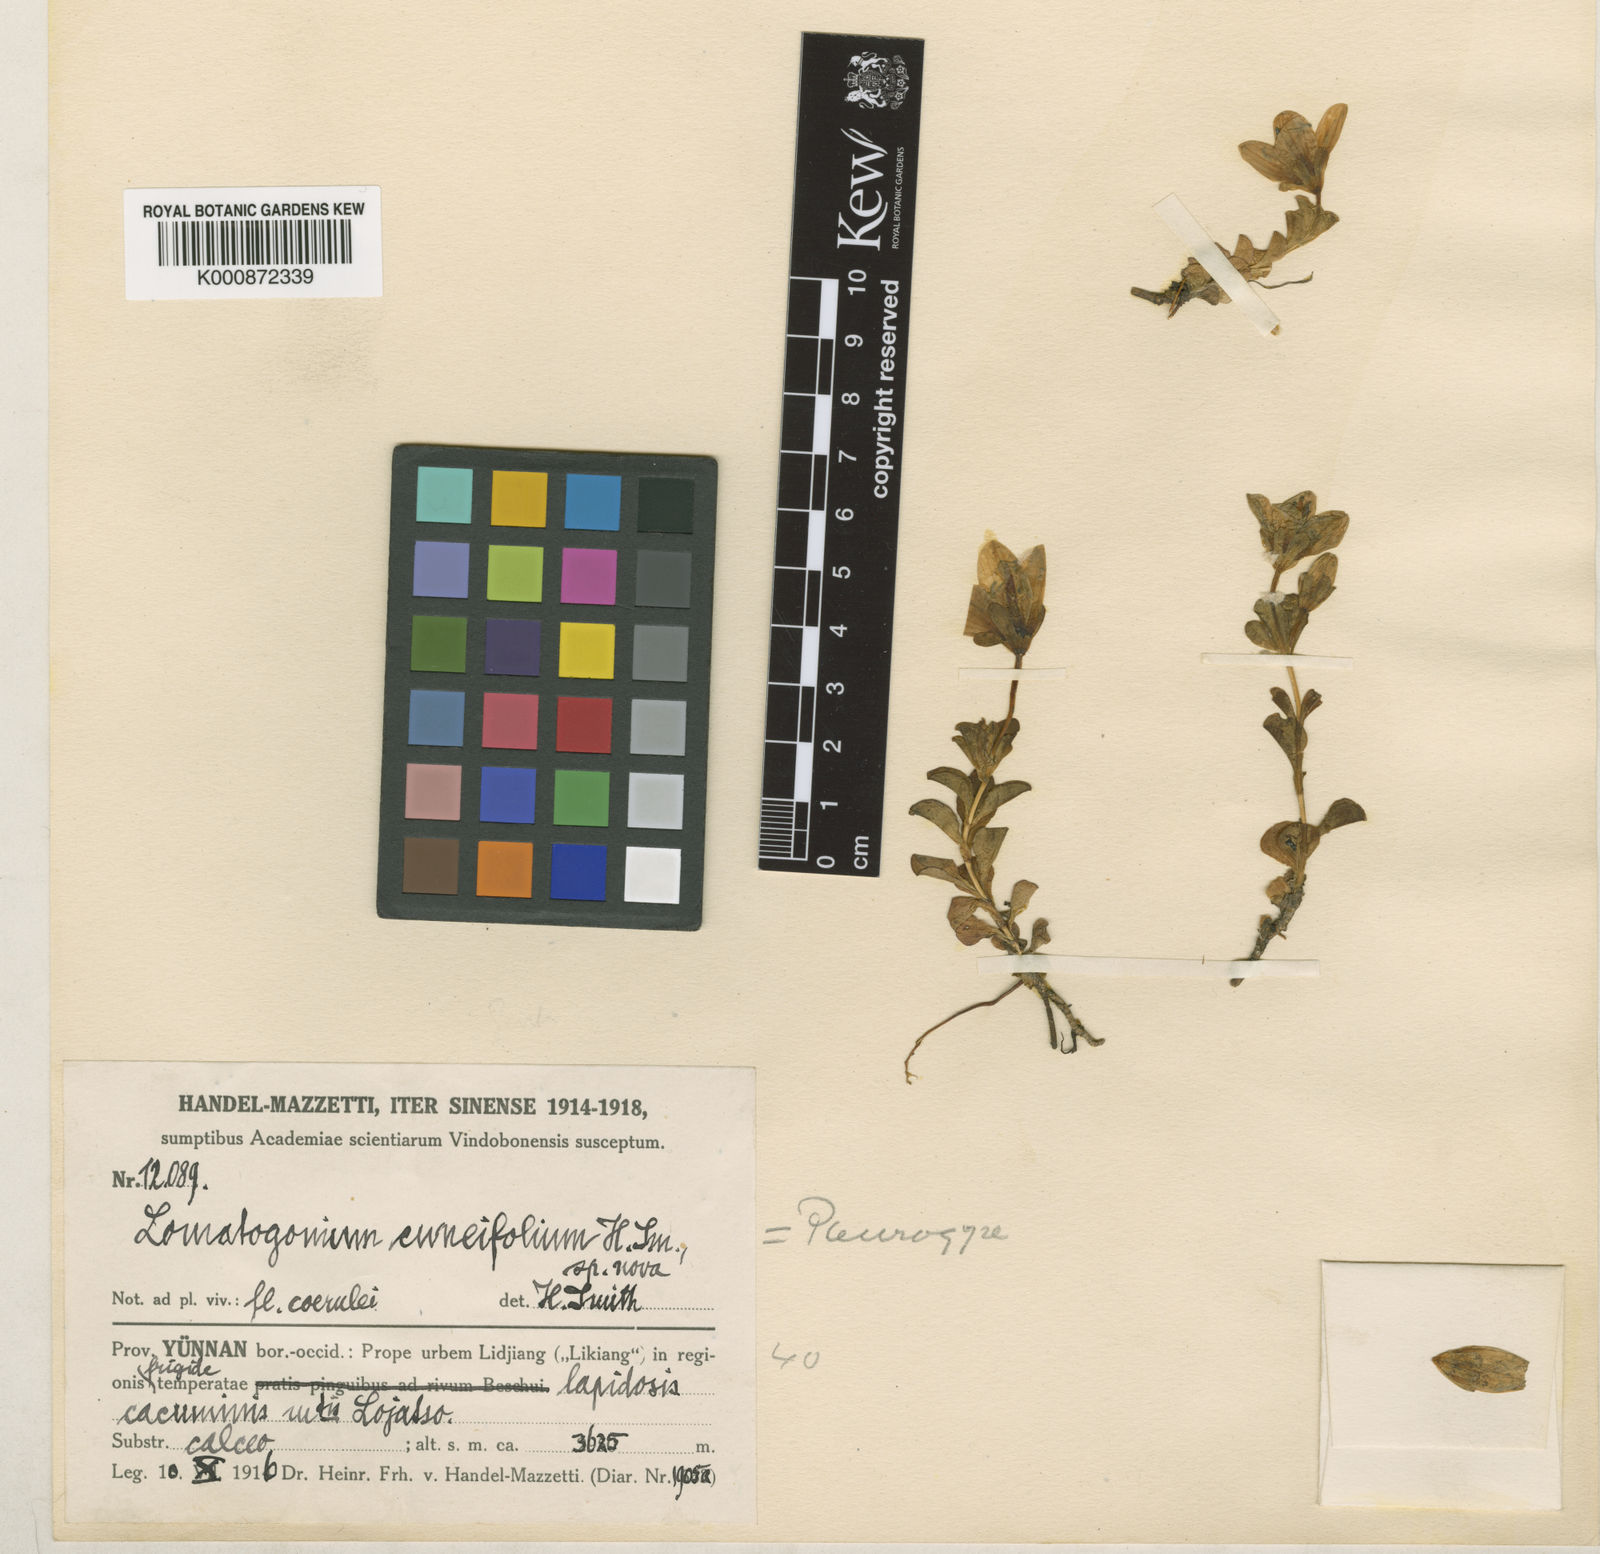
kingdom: Plantae
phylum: Tracheophyta
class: Magnoliopsida
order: Gentianales
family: Gentianaceae
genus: Lomatogonium
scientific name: Lomatogonium oreocharis
